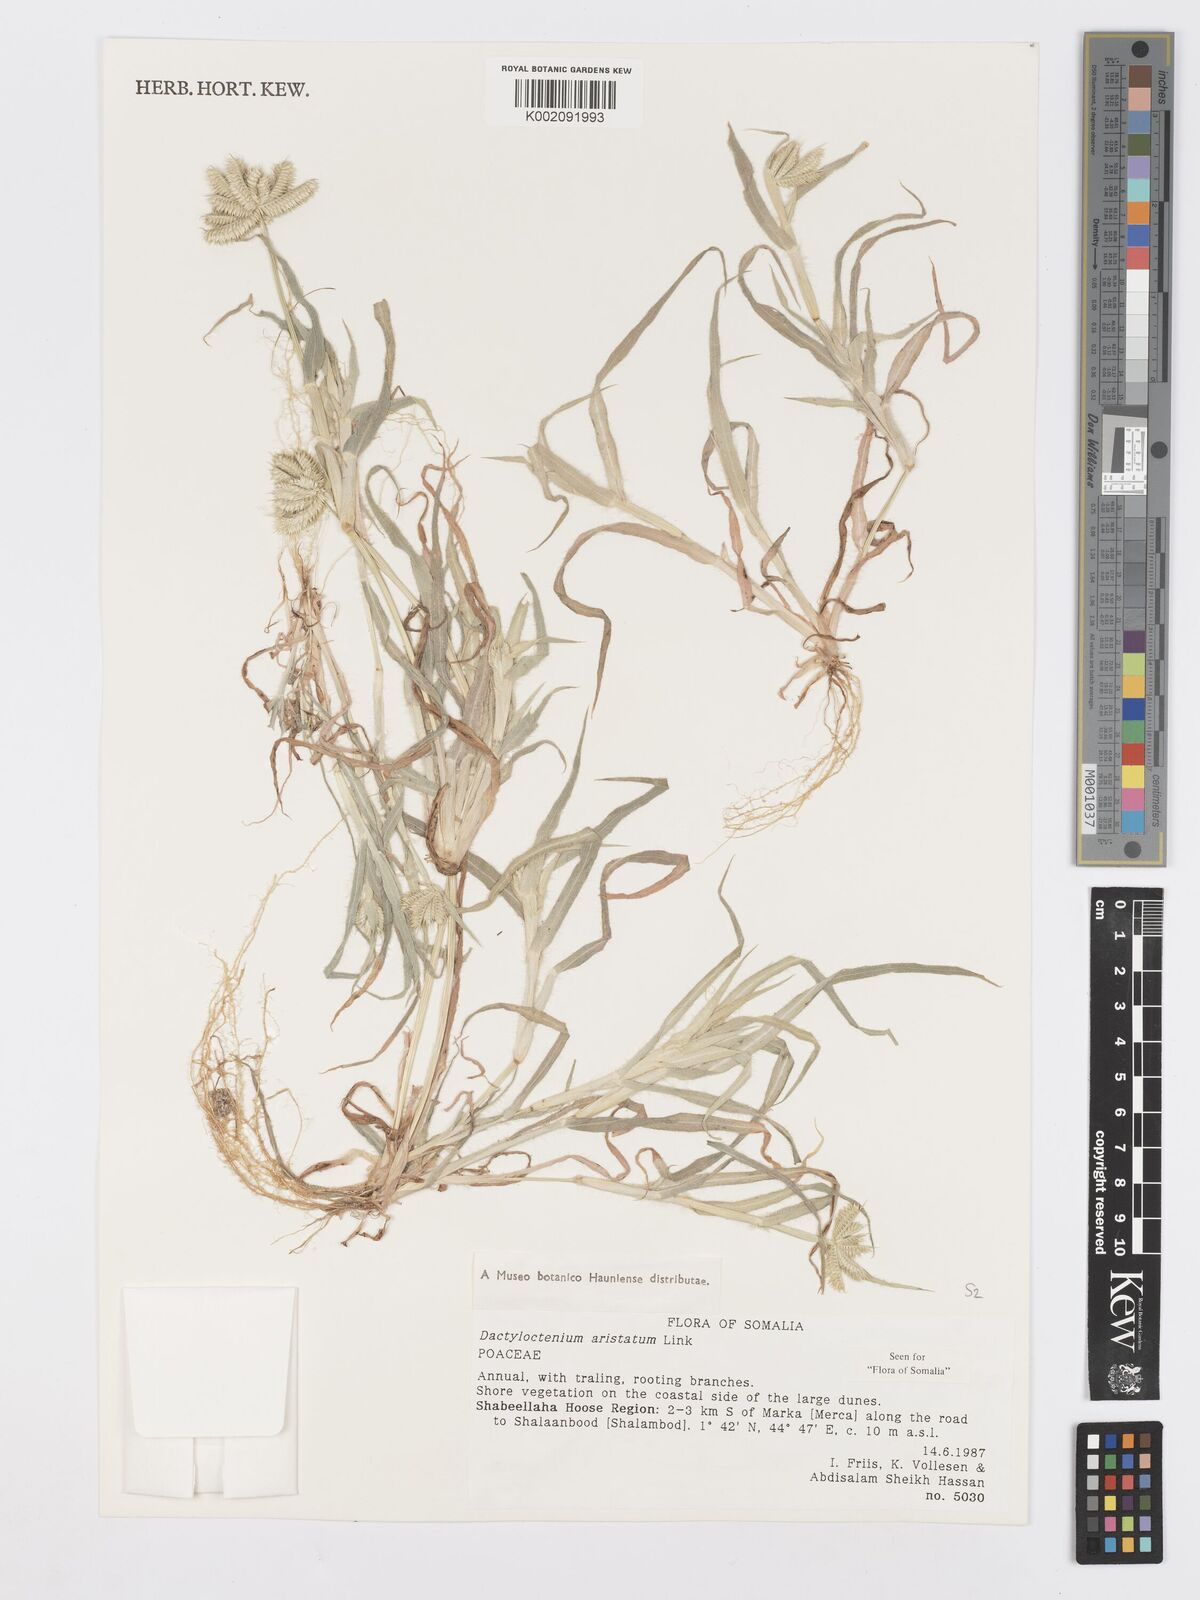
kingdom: Plantae
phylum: Tracheophyta
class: Liliopsida
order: Poales
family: Poaceae
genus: Dactyloctenium
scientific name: Dactyloctenium aristatum
